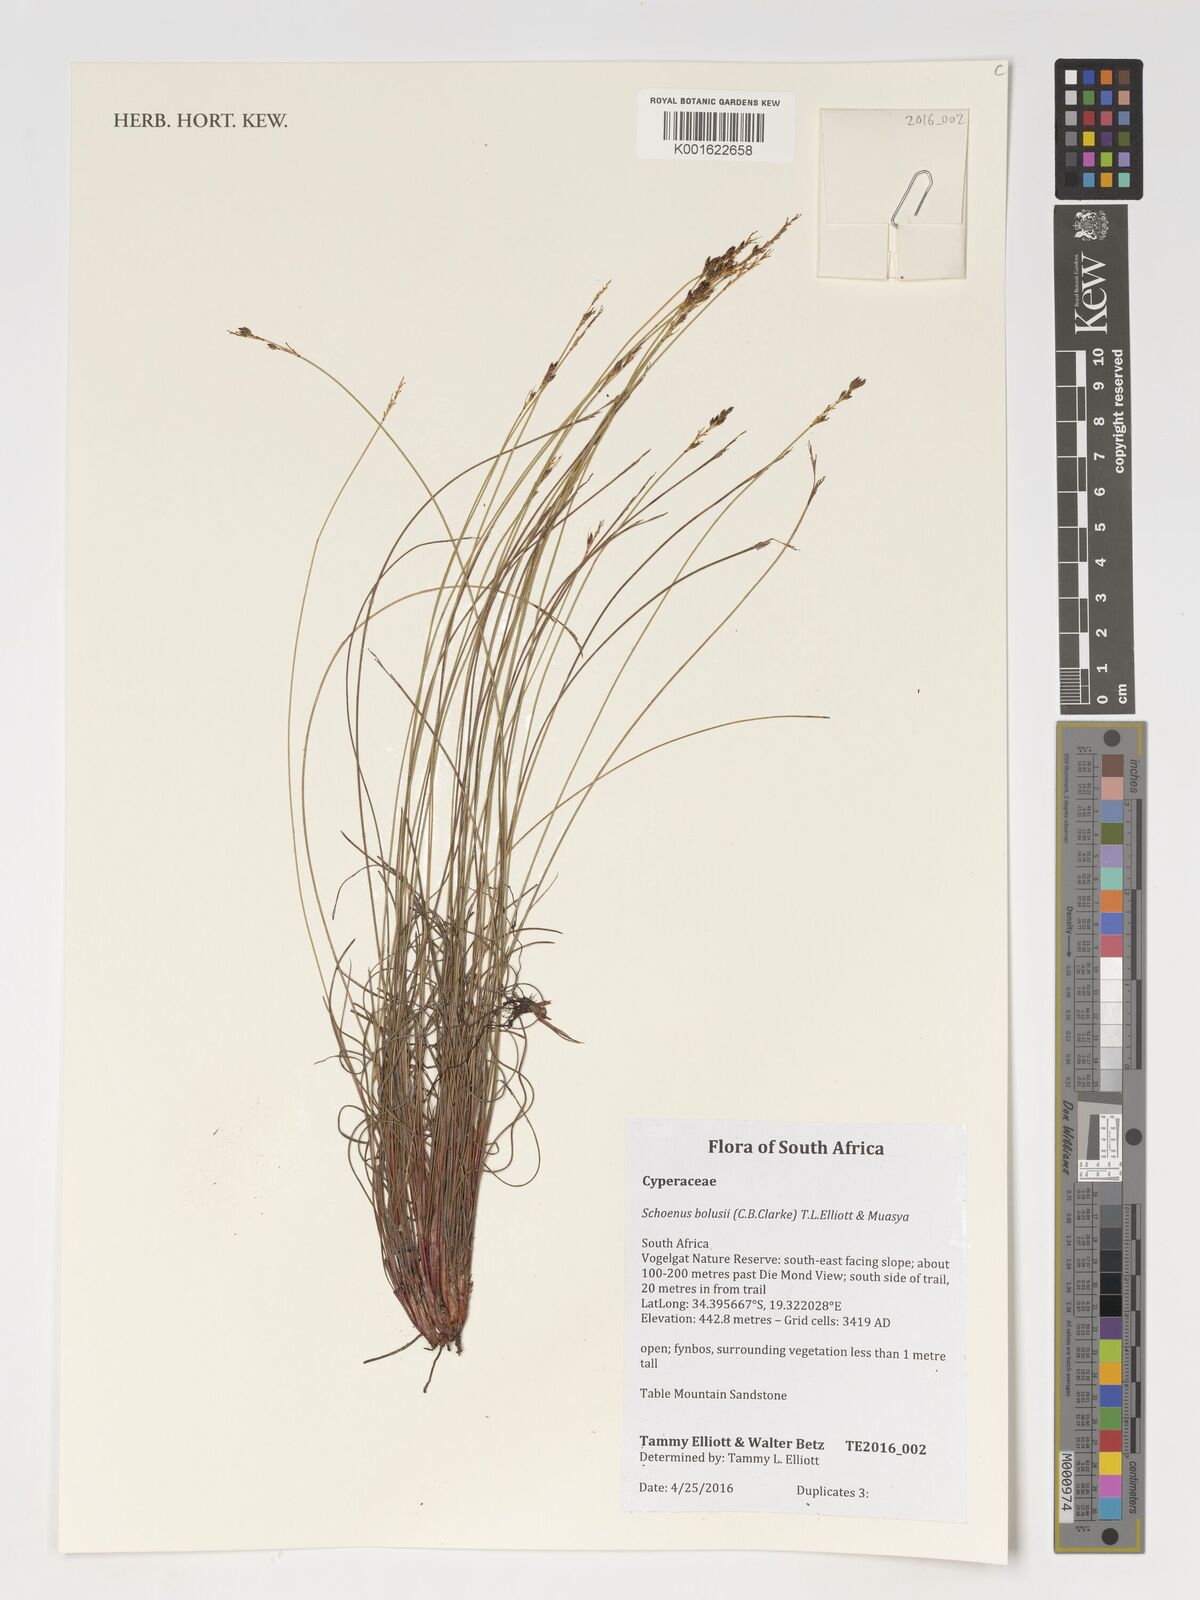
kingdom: Plantae
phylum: Tracheophyta
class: Liliopsida
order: Poales
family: Cyperaceae
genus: Schoenus
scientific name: Schoenus bolusii
